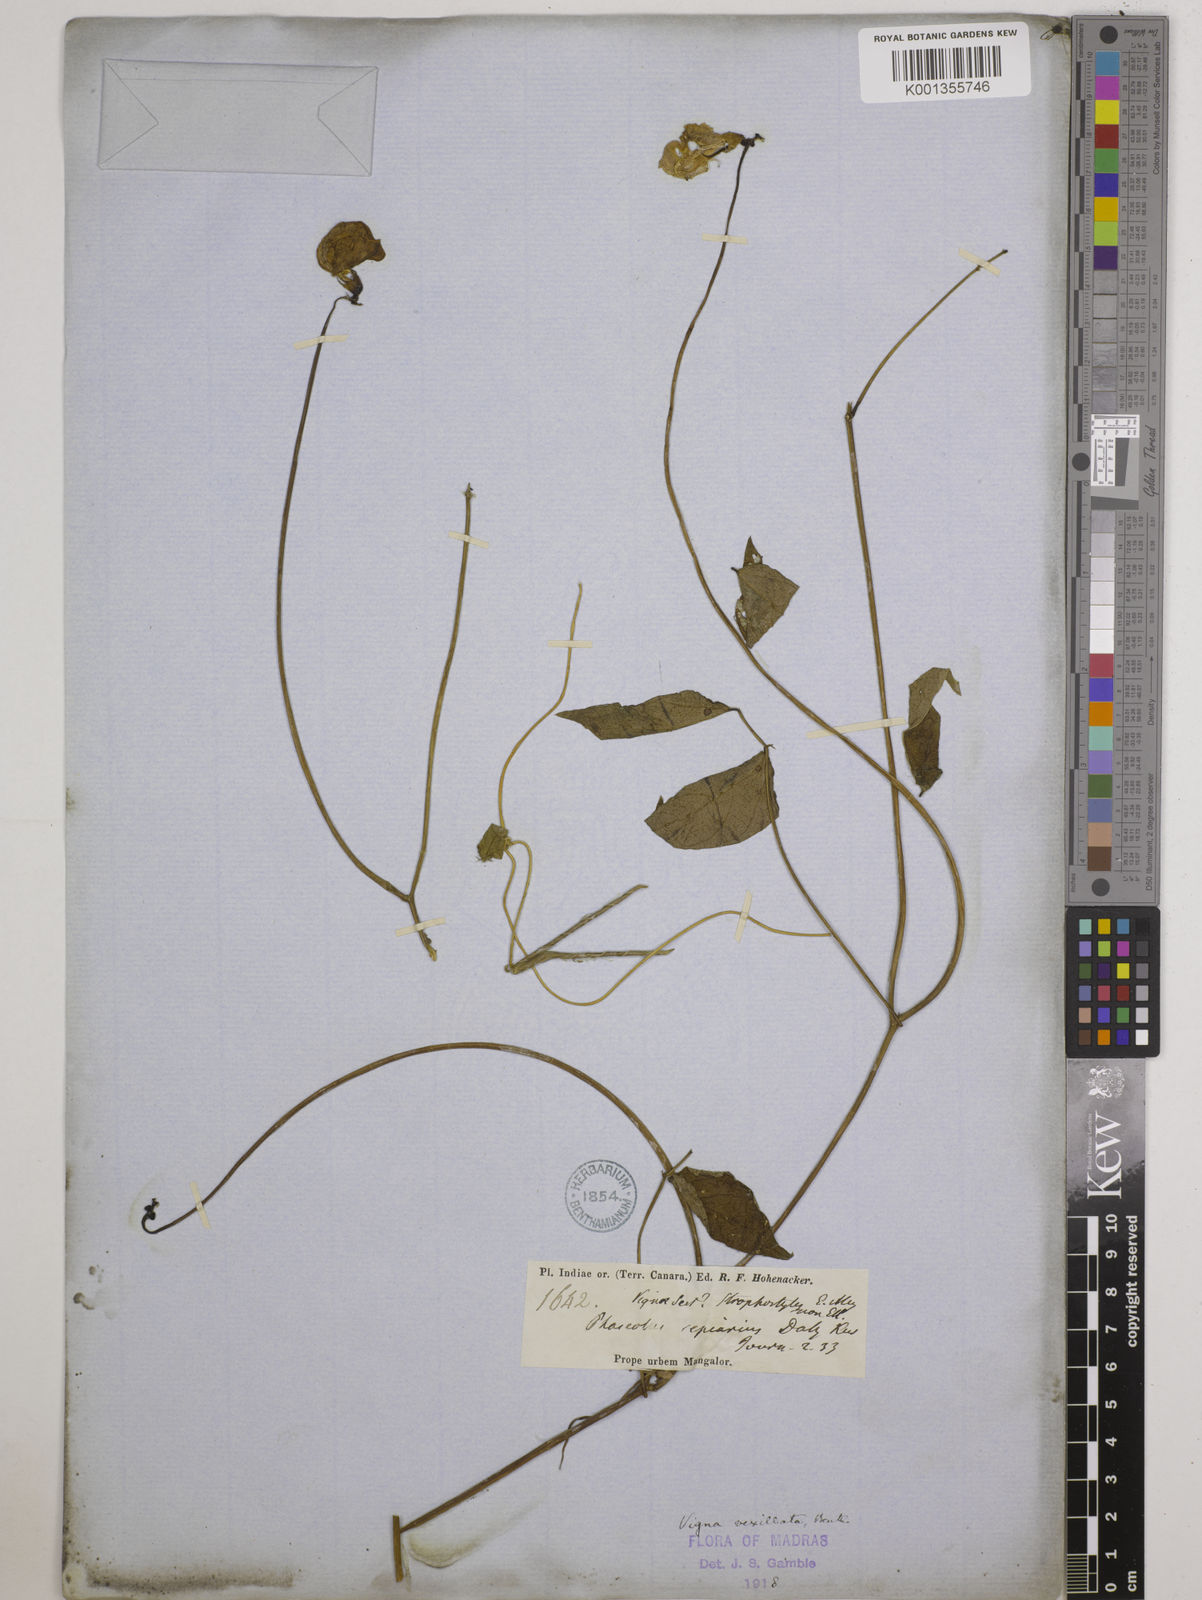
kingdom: Plantae
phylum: Tracheophyta
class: Magnoliopsida
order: Fabales
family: Fabaceae
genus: Vigna
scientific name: Vigna vexillata
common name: Zombi pea
